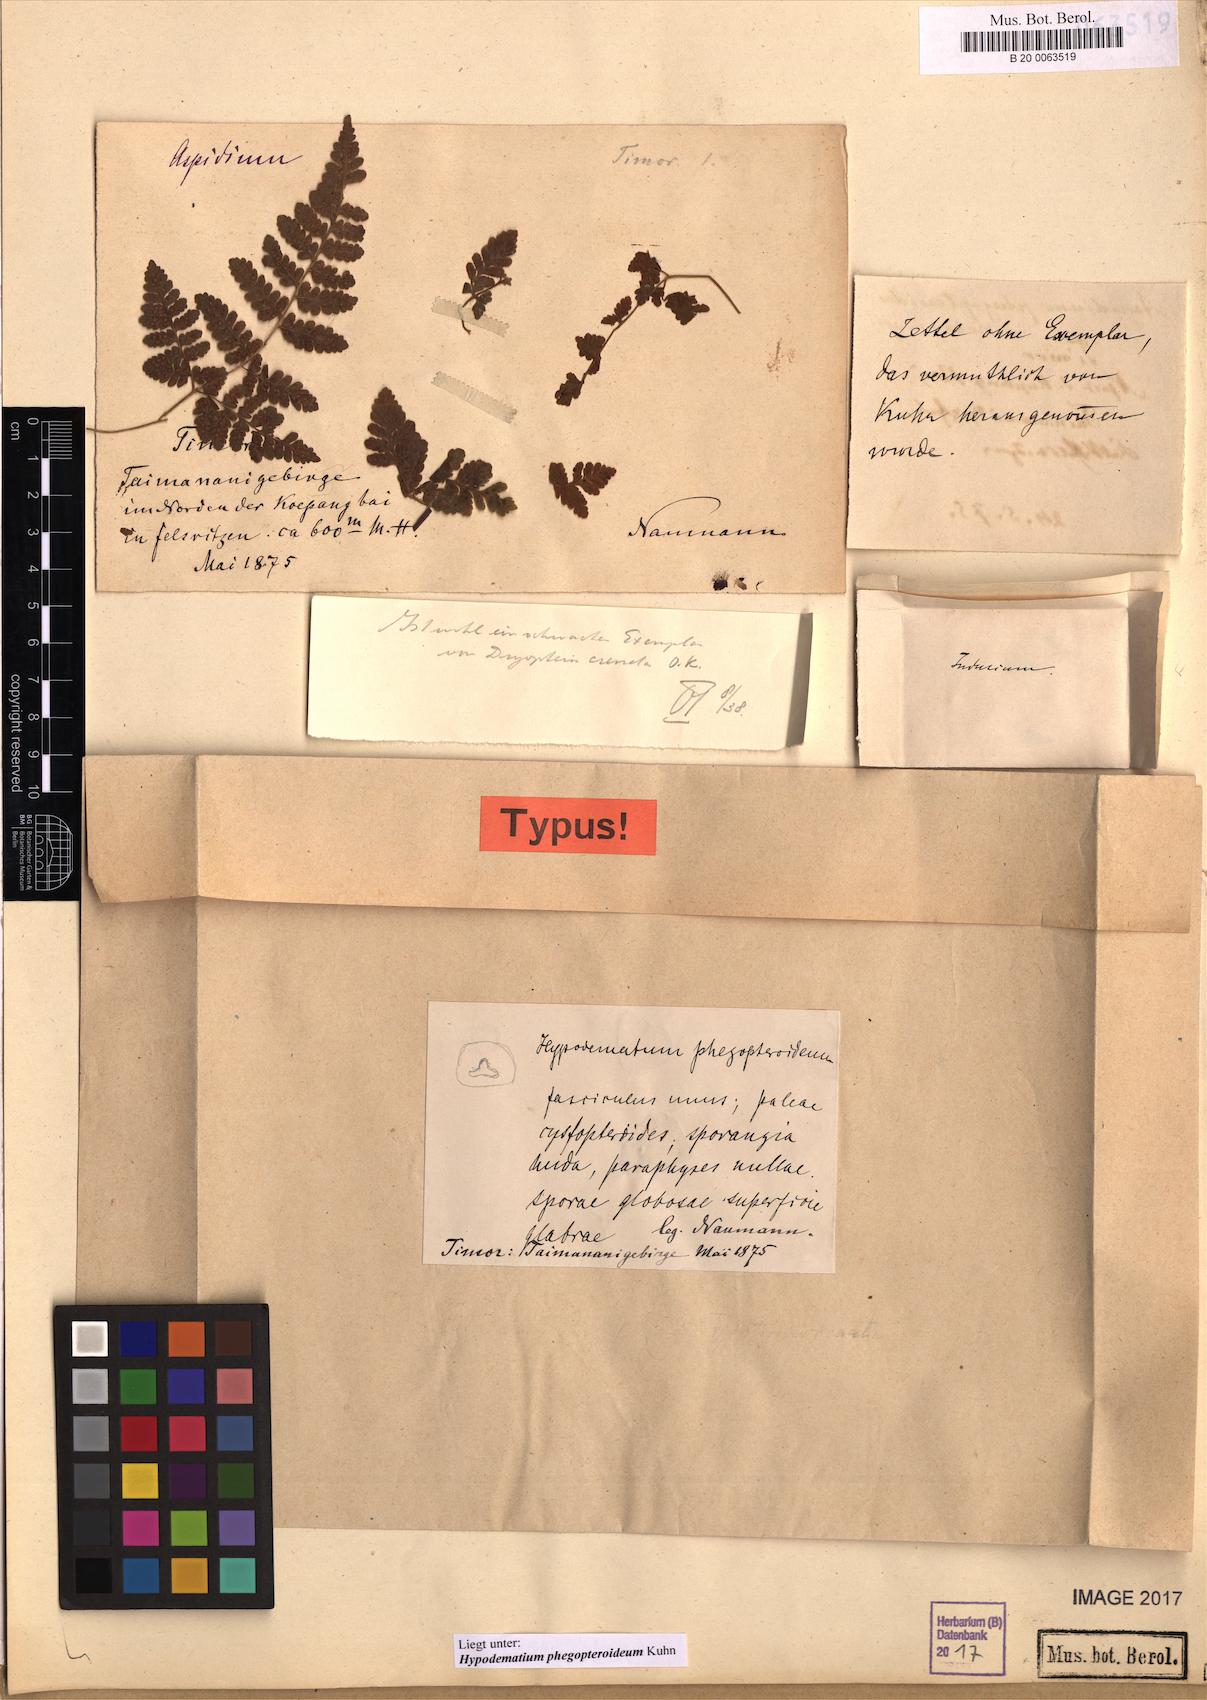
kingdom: Plantae
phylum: Tracheophyta
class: Polypodiopsida
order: Polypodiales
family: Hypodematiaceae
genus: Hypodematium
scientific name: Hypodematium phegopteroideum
